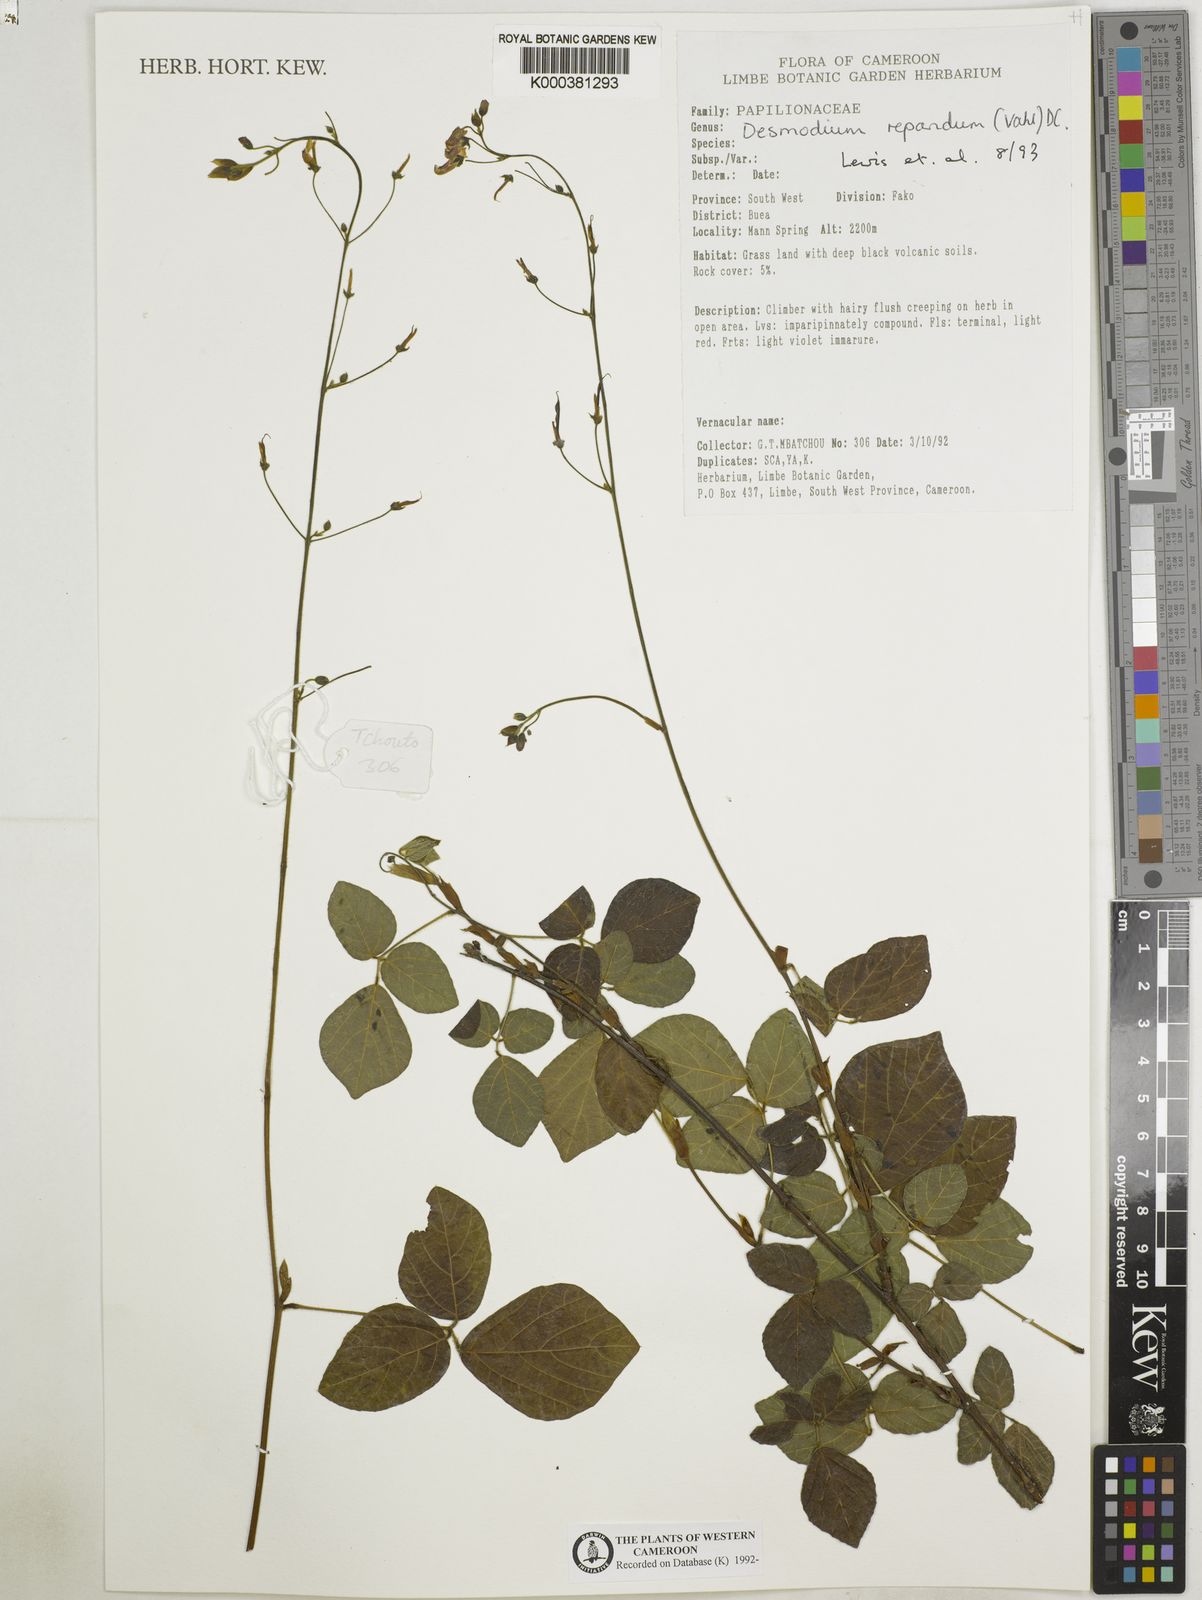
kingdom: Plantae
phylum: Tracheophyta
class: Magnoliopsida
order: Fabales
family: Fabaceae
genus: Desmodium
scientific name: Desmodium
